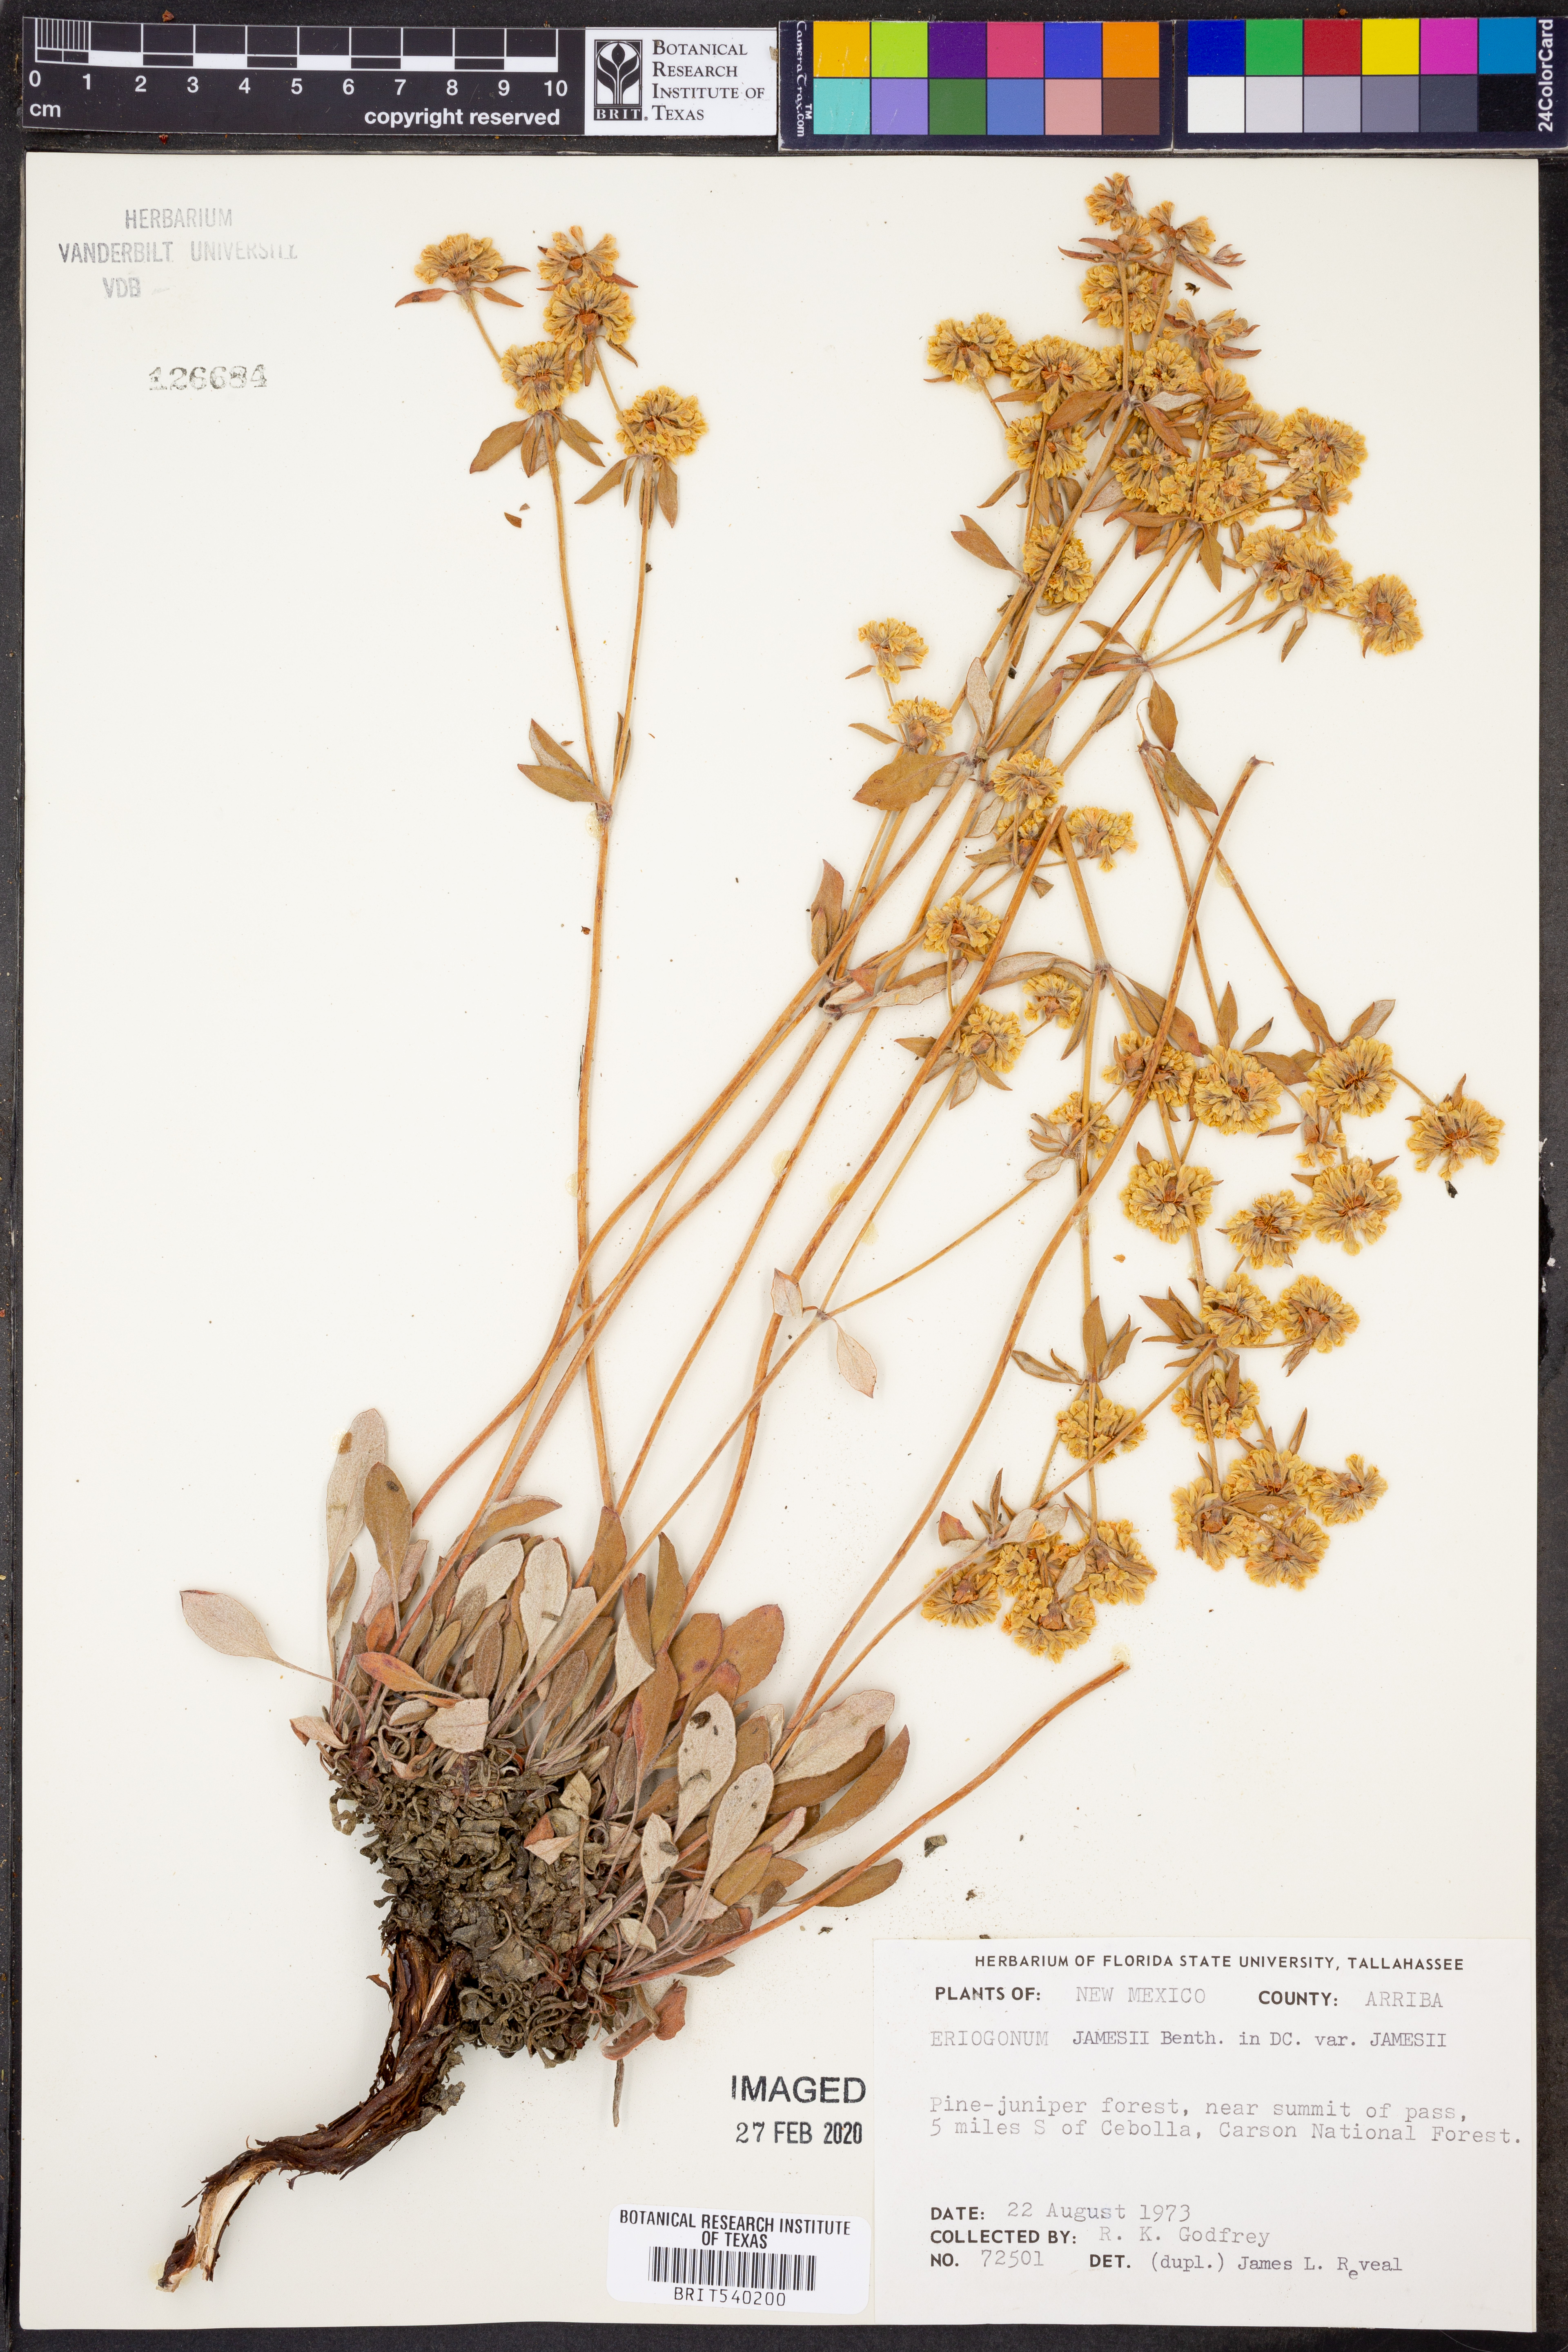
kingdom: Plantae
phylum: Tracheophyta
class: Magnoliopsida
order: Caryophyllales
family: Polygonaceae
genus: Eriogonum
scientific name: Eriogonum jamesii
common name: Antelope-sage
